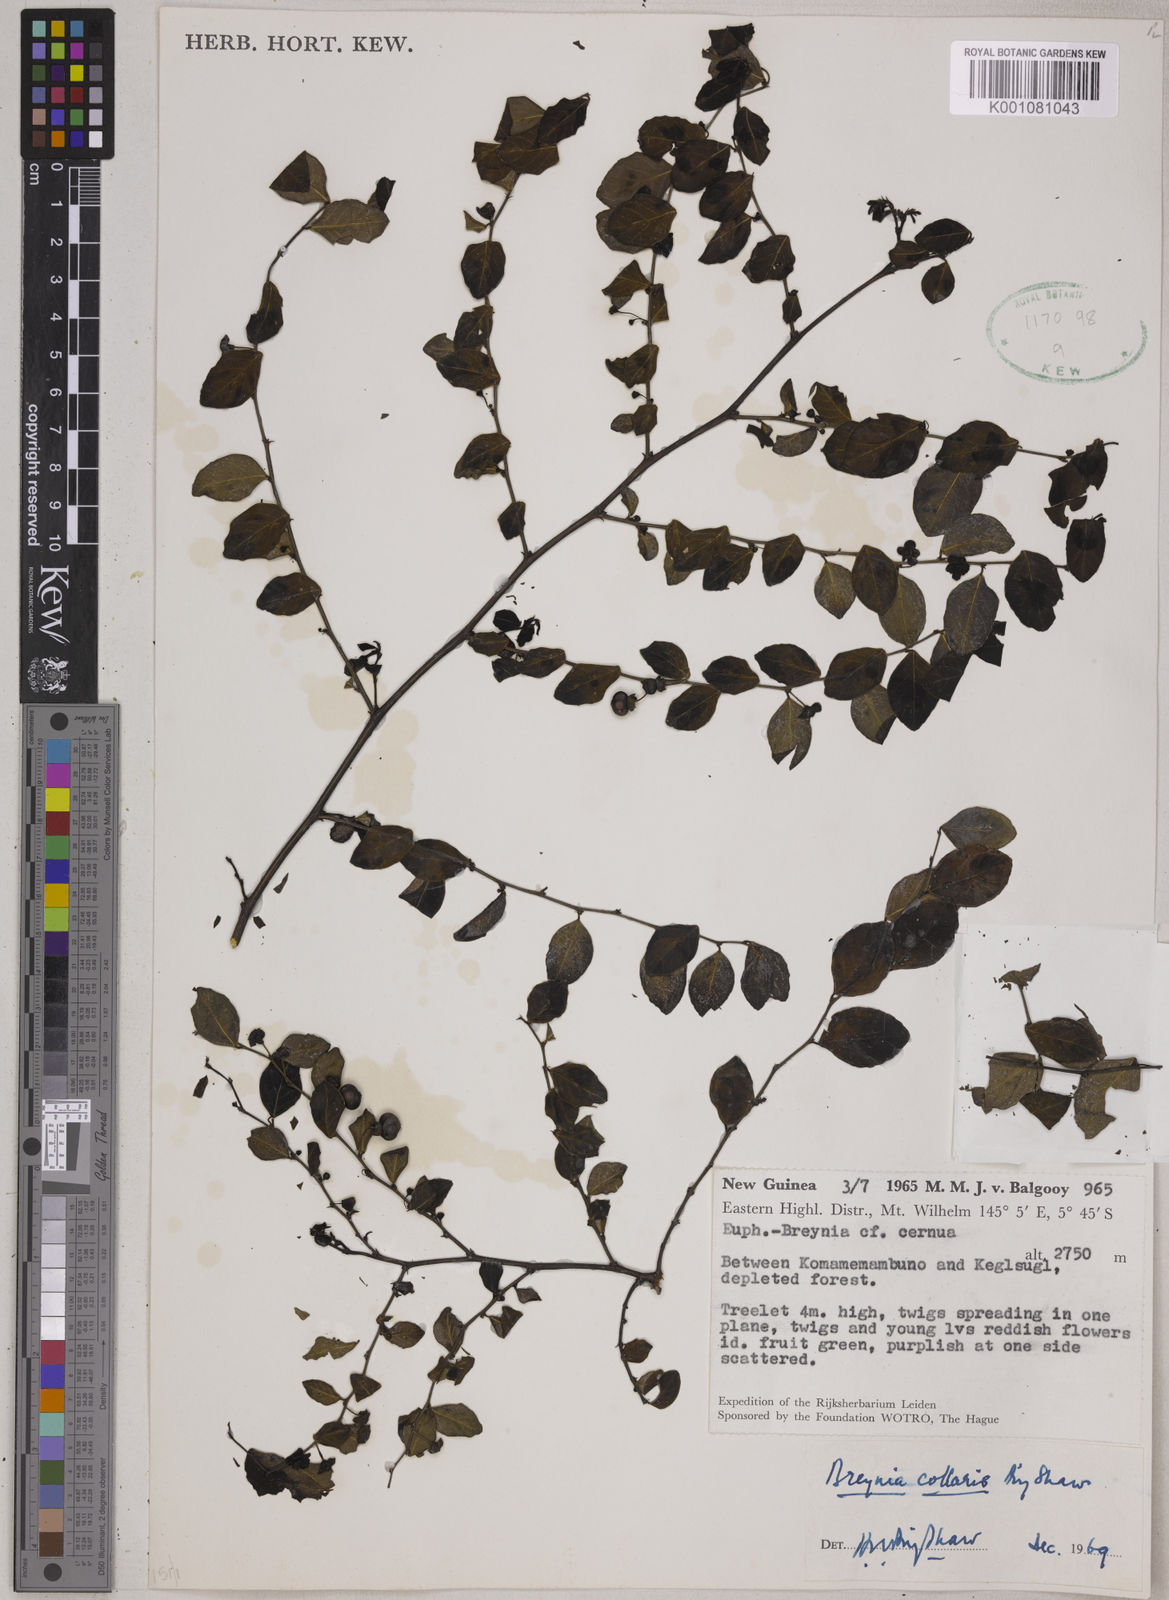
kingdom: Plantae
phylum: Tracheophyta
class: Magnoliopsida
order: Malpighiales
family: Phyllanthaceae
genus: Breynia
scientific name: Breynia collaris
